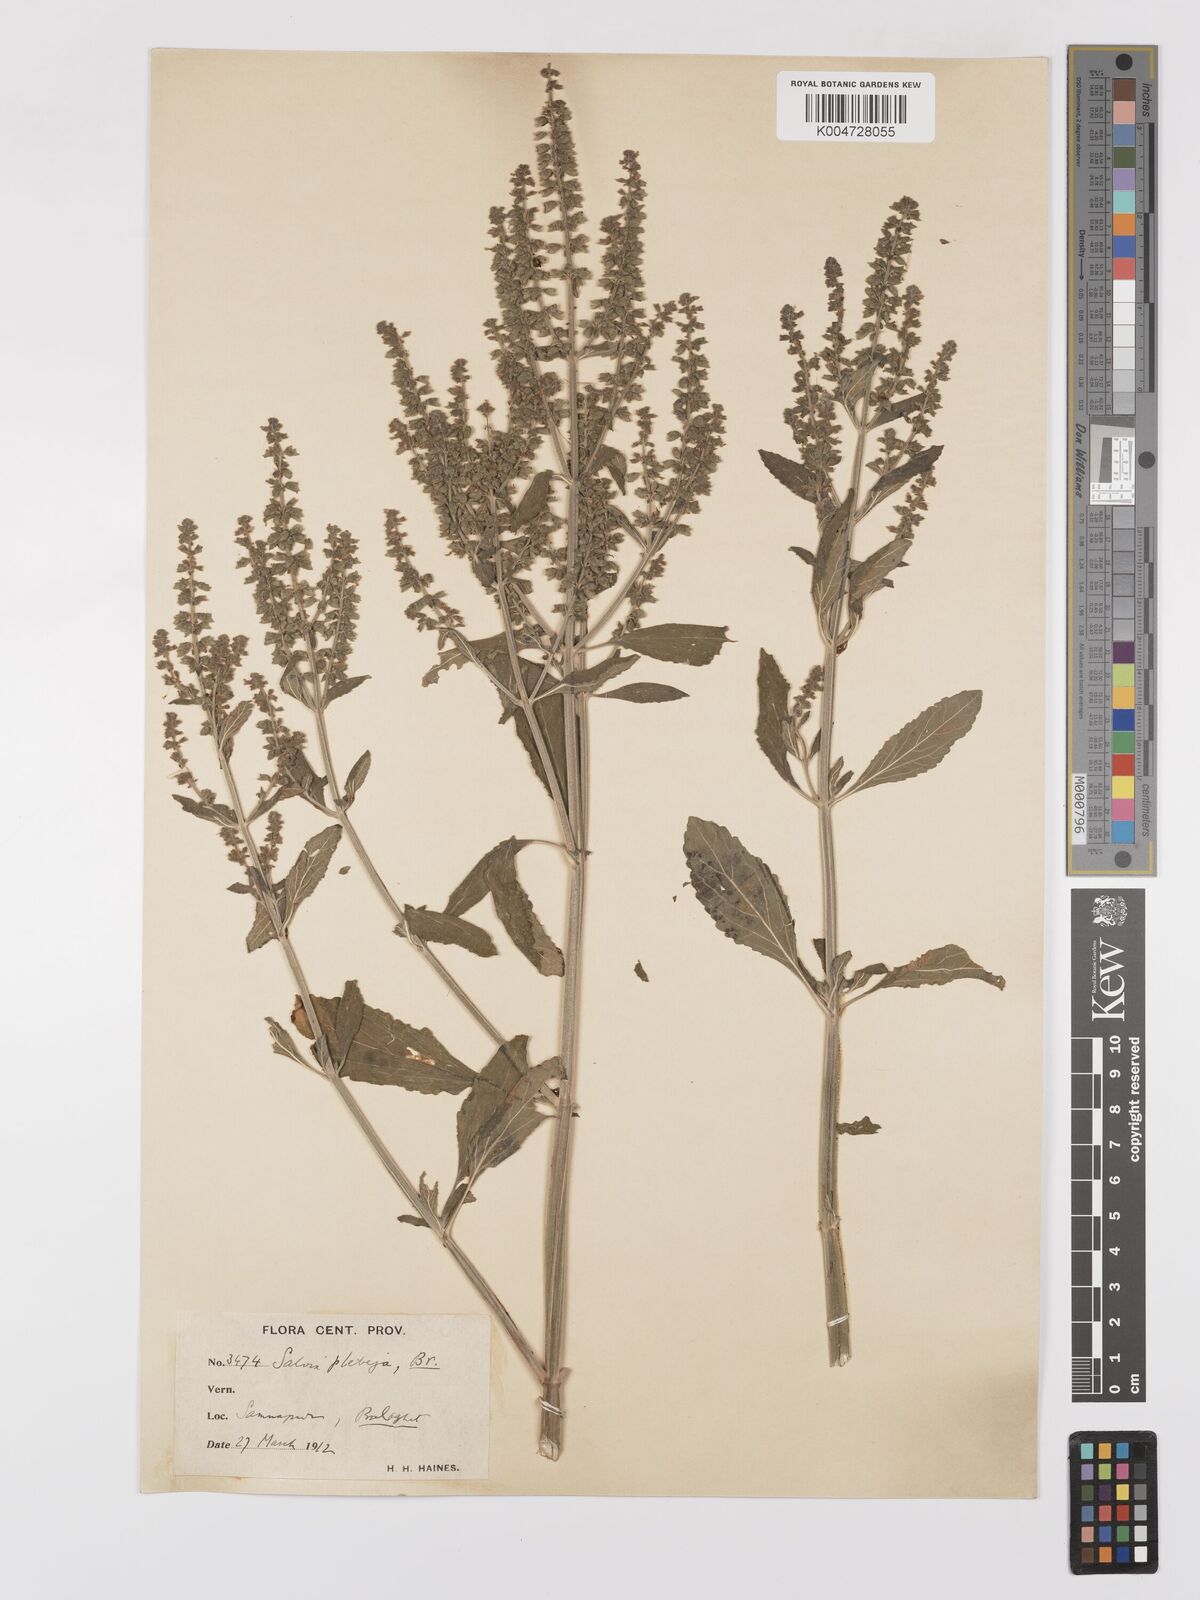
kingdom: Plantae
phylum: Tracheophyta
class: Magnoliopsida
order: Lamiales
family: Lamiaceae
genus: Salvia
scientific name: Salvia plebeia
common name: Australian sage
